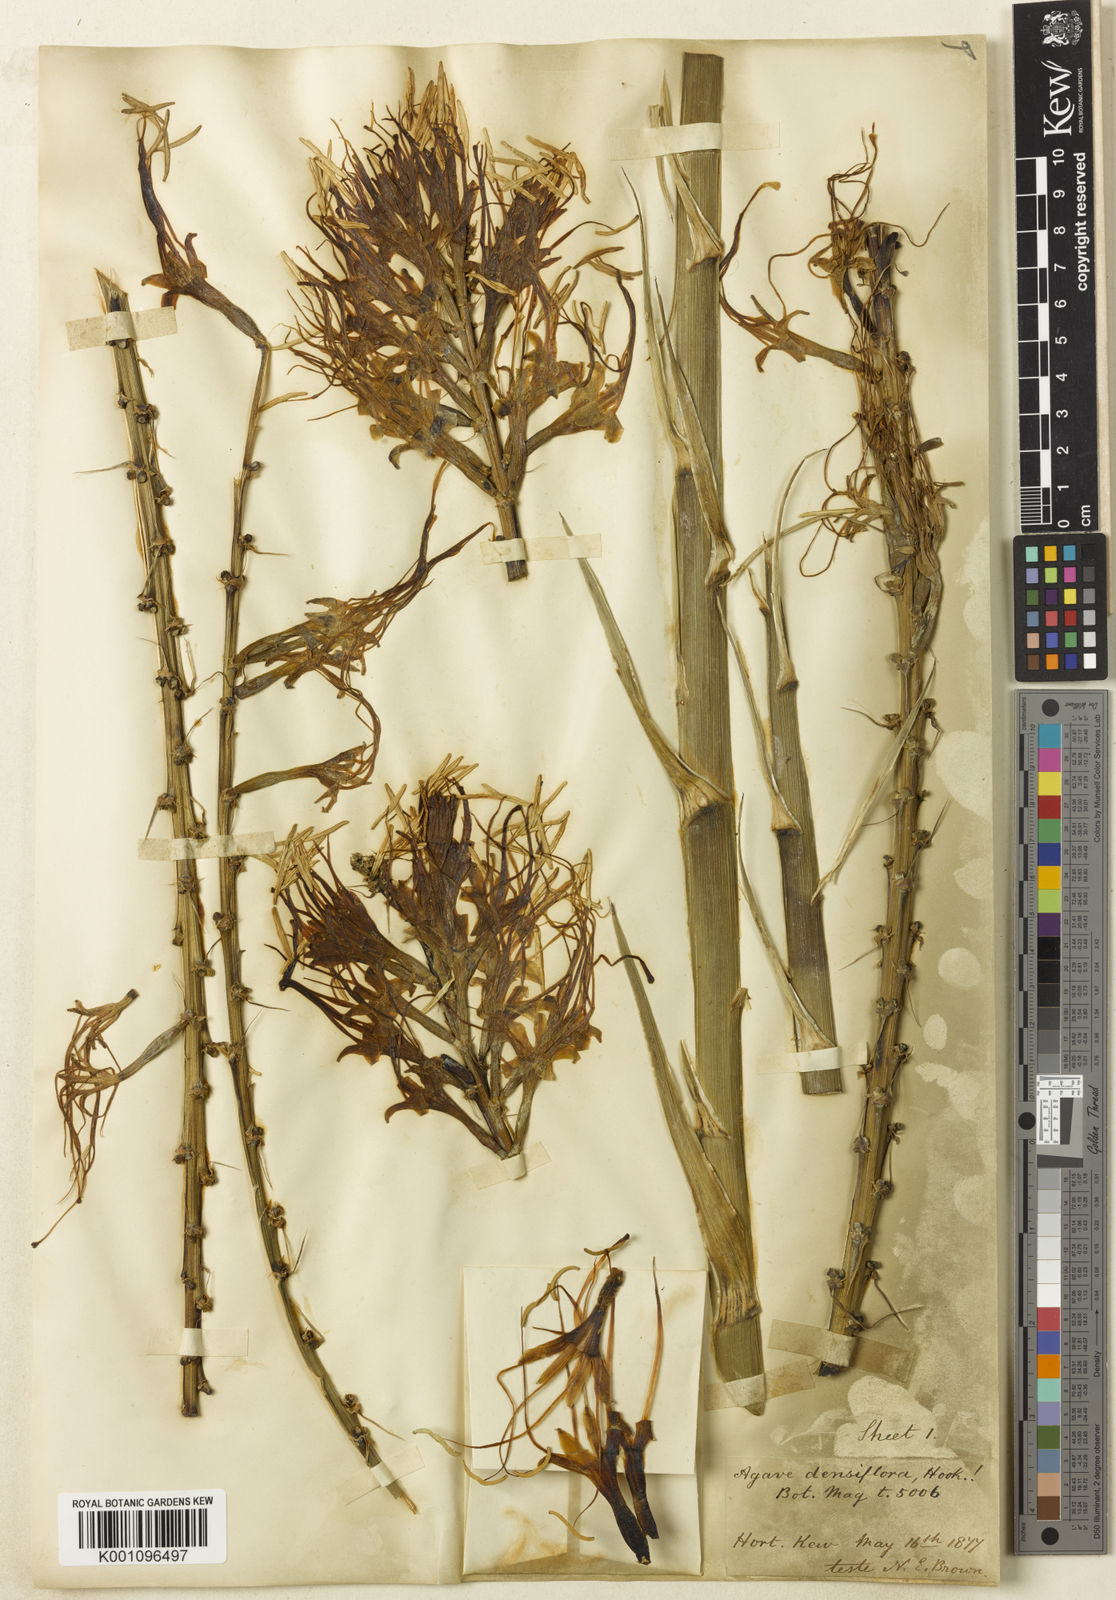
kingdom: Plantae
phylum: Tracheophyta
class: Liliopsida
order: Asparagales
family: Asparagaceae
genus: Agave
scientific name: Agave polyacantha
